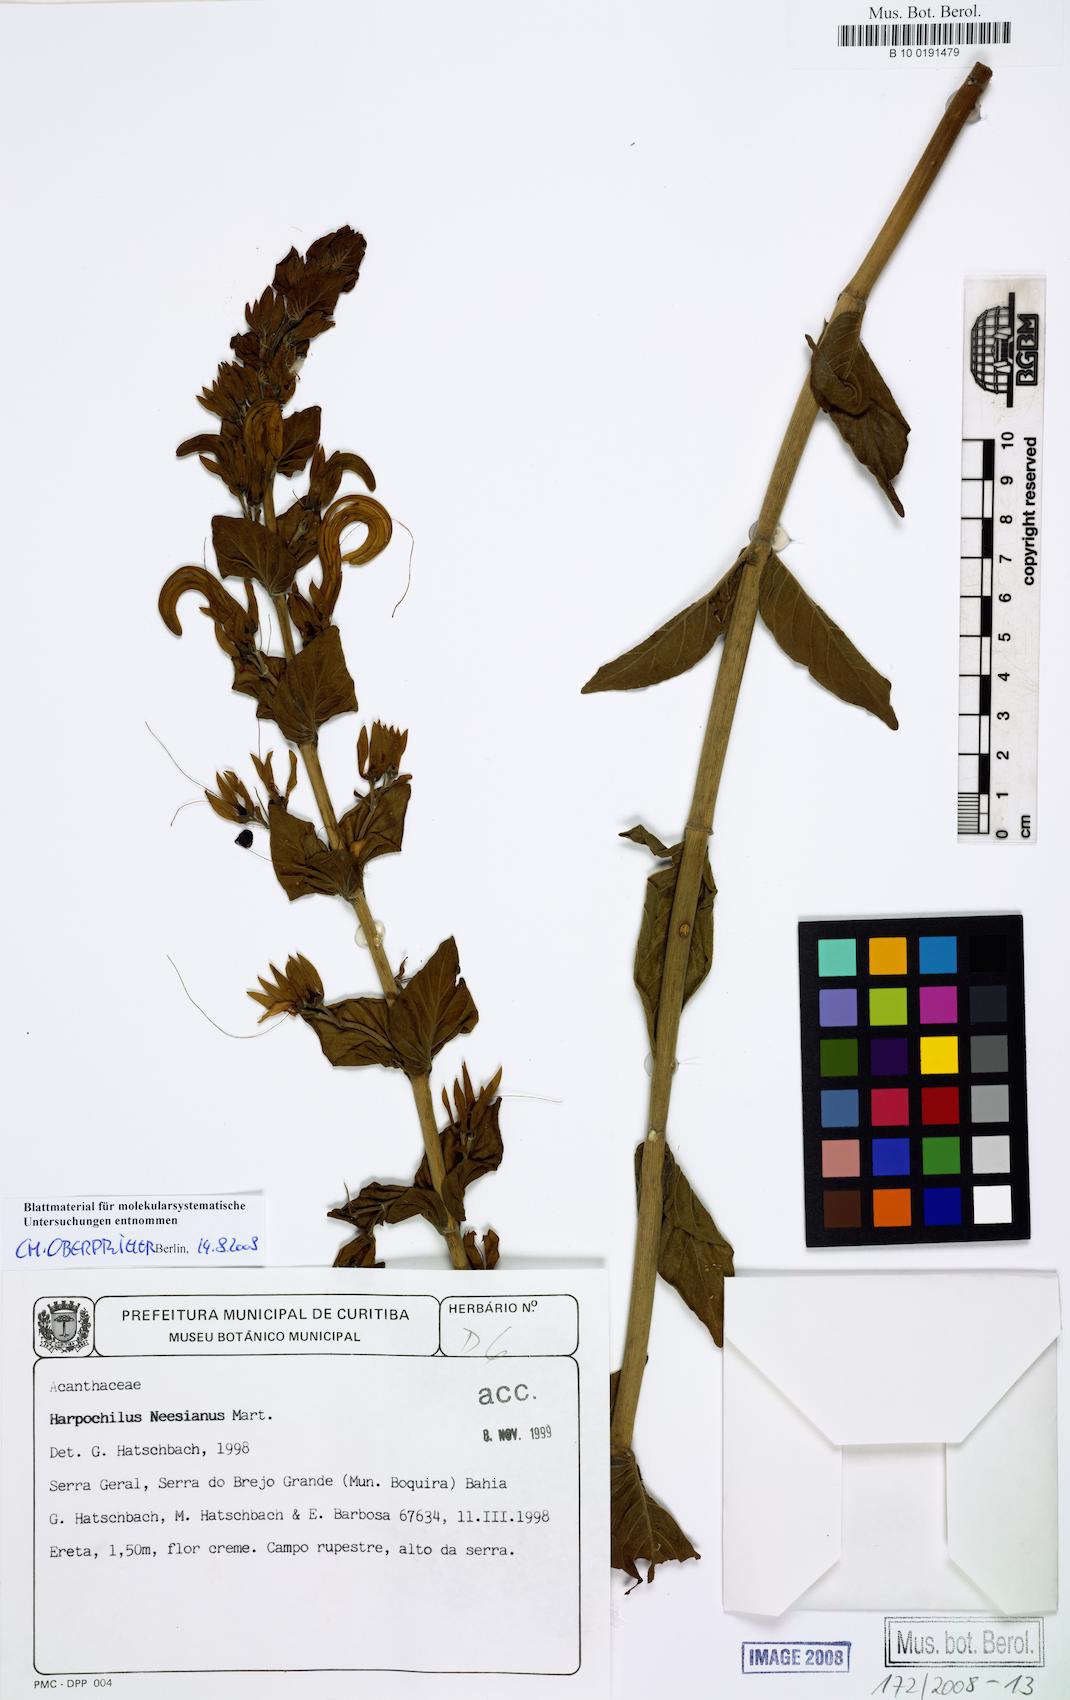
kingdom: Plantae
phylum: Tracheophyta
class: Magnoliopsida
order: Lamiales
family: Acanthaceae
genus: Harpochilus
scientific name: Harpochilus neesianus
